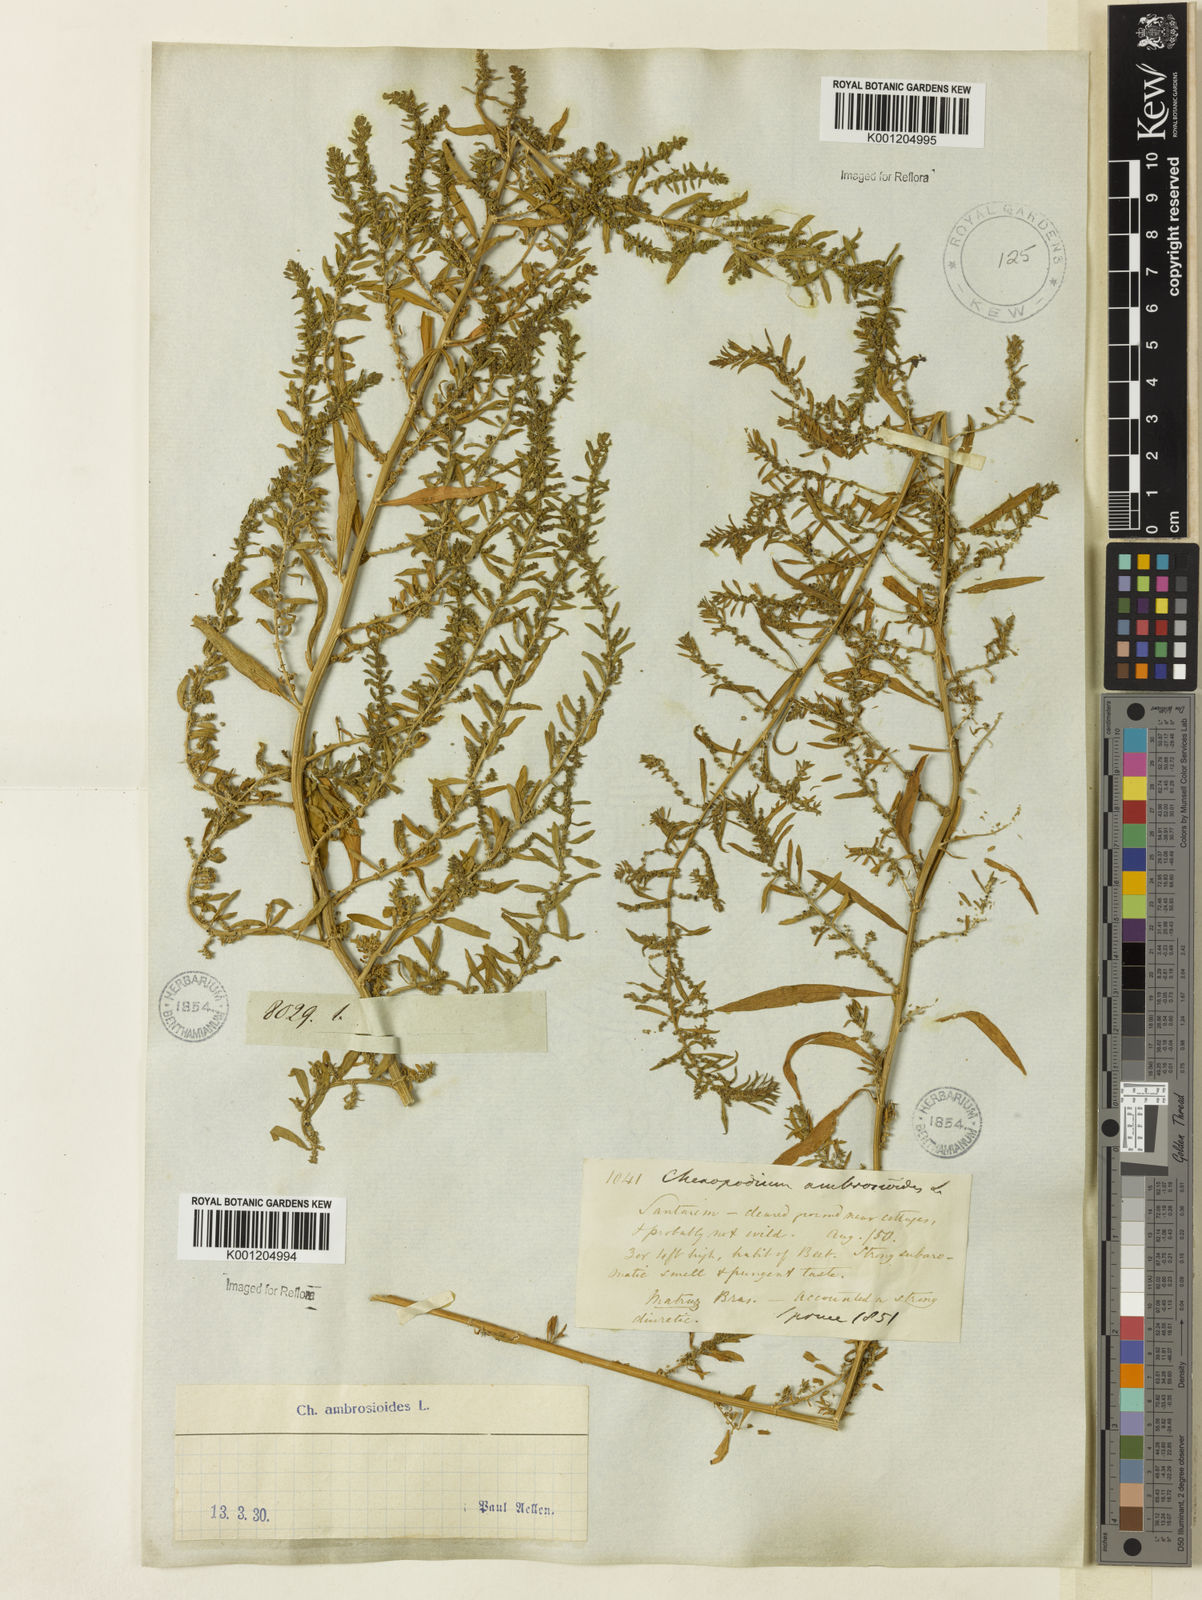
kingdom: Plantae
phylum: Tracheophyta
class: Magnoliopsida
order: Caryophyllales
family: Amaranthaceae
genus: Dysphania
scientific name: Dysphania ambrosioides
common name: Wormseed
